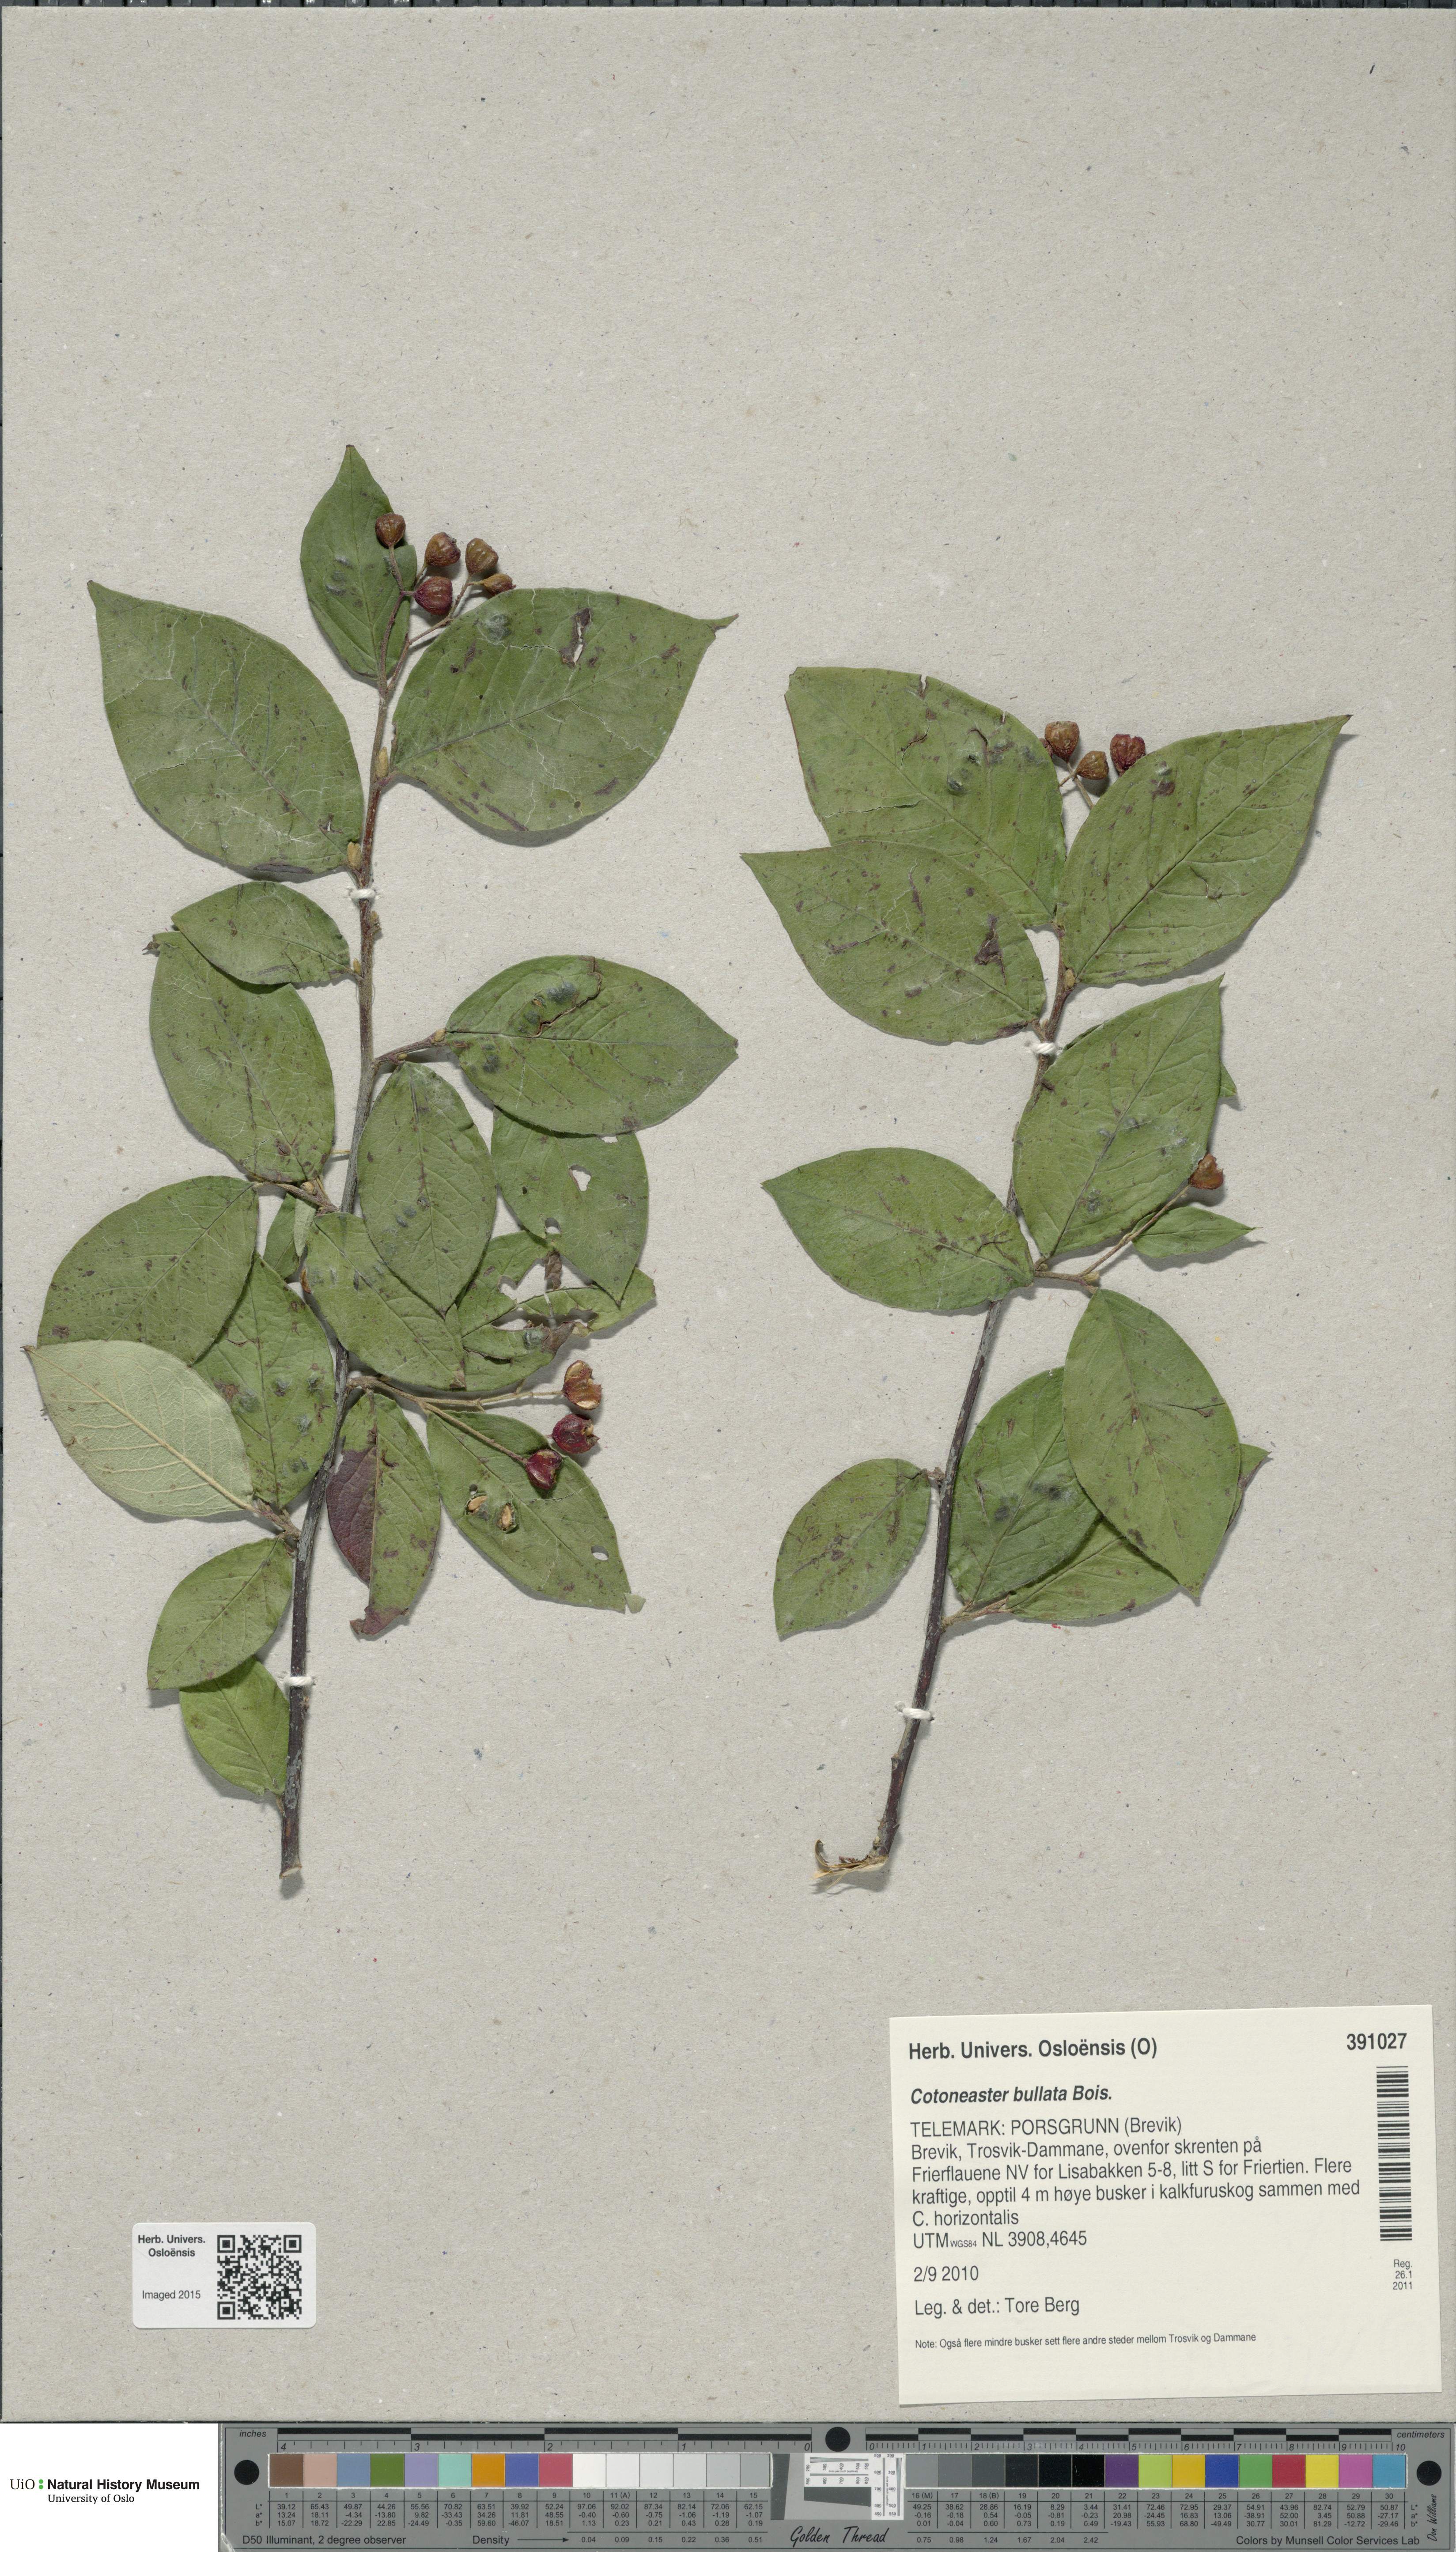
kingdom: Plantae
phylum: Tracheophyta
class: Magnoliopsida
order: Rosales
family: Rosaceae
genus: Cotoneaster
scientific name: Cotoneaster bullatus
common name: Hollyberry cotoneaster
